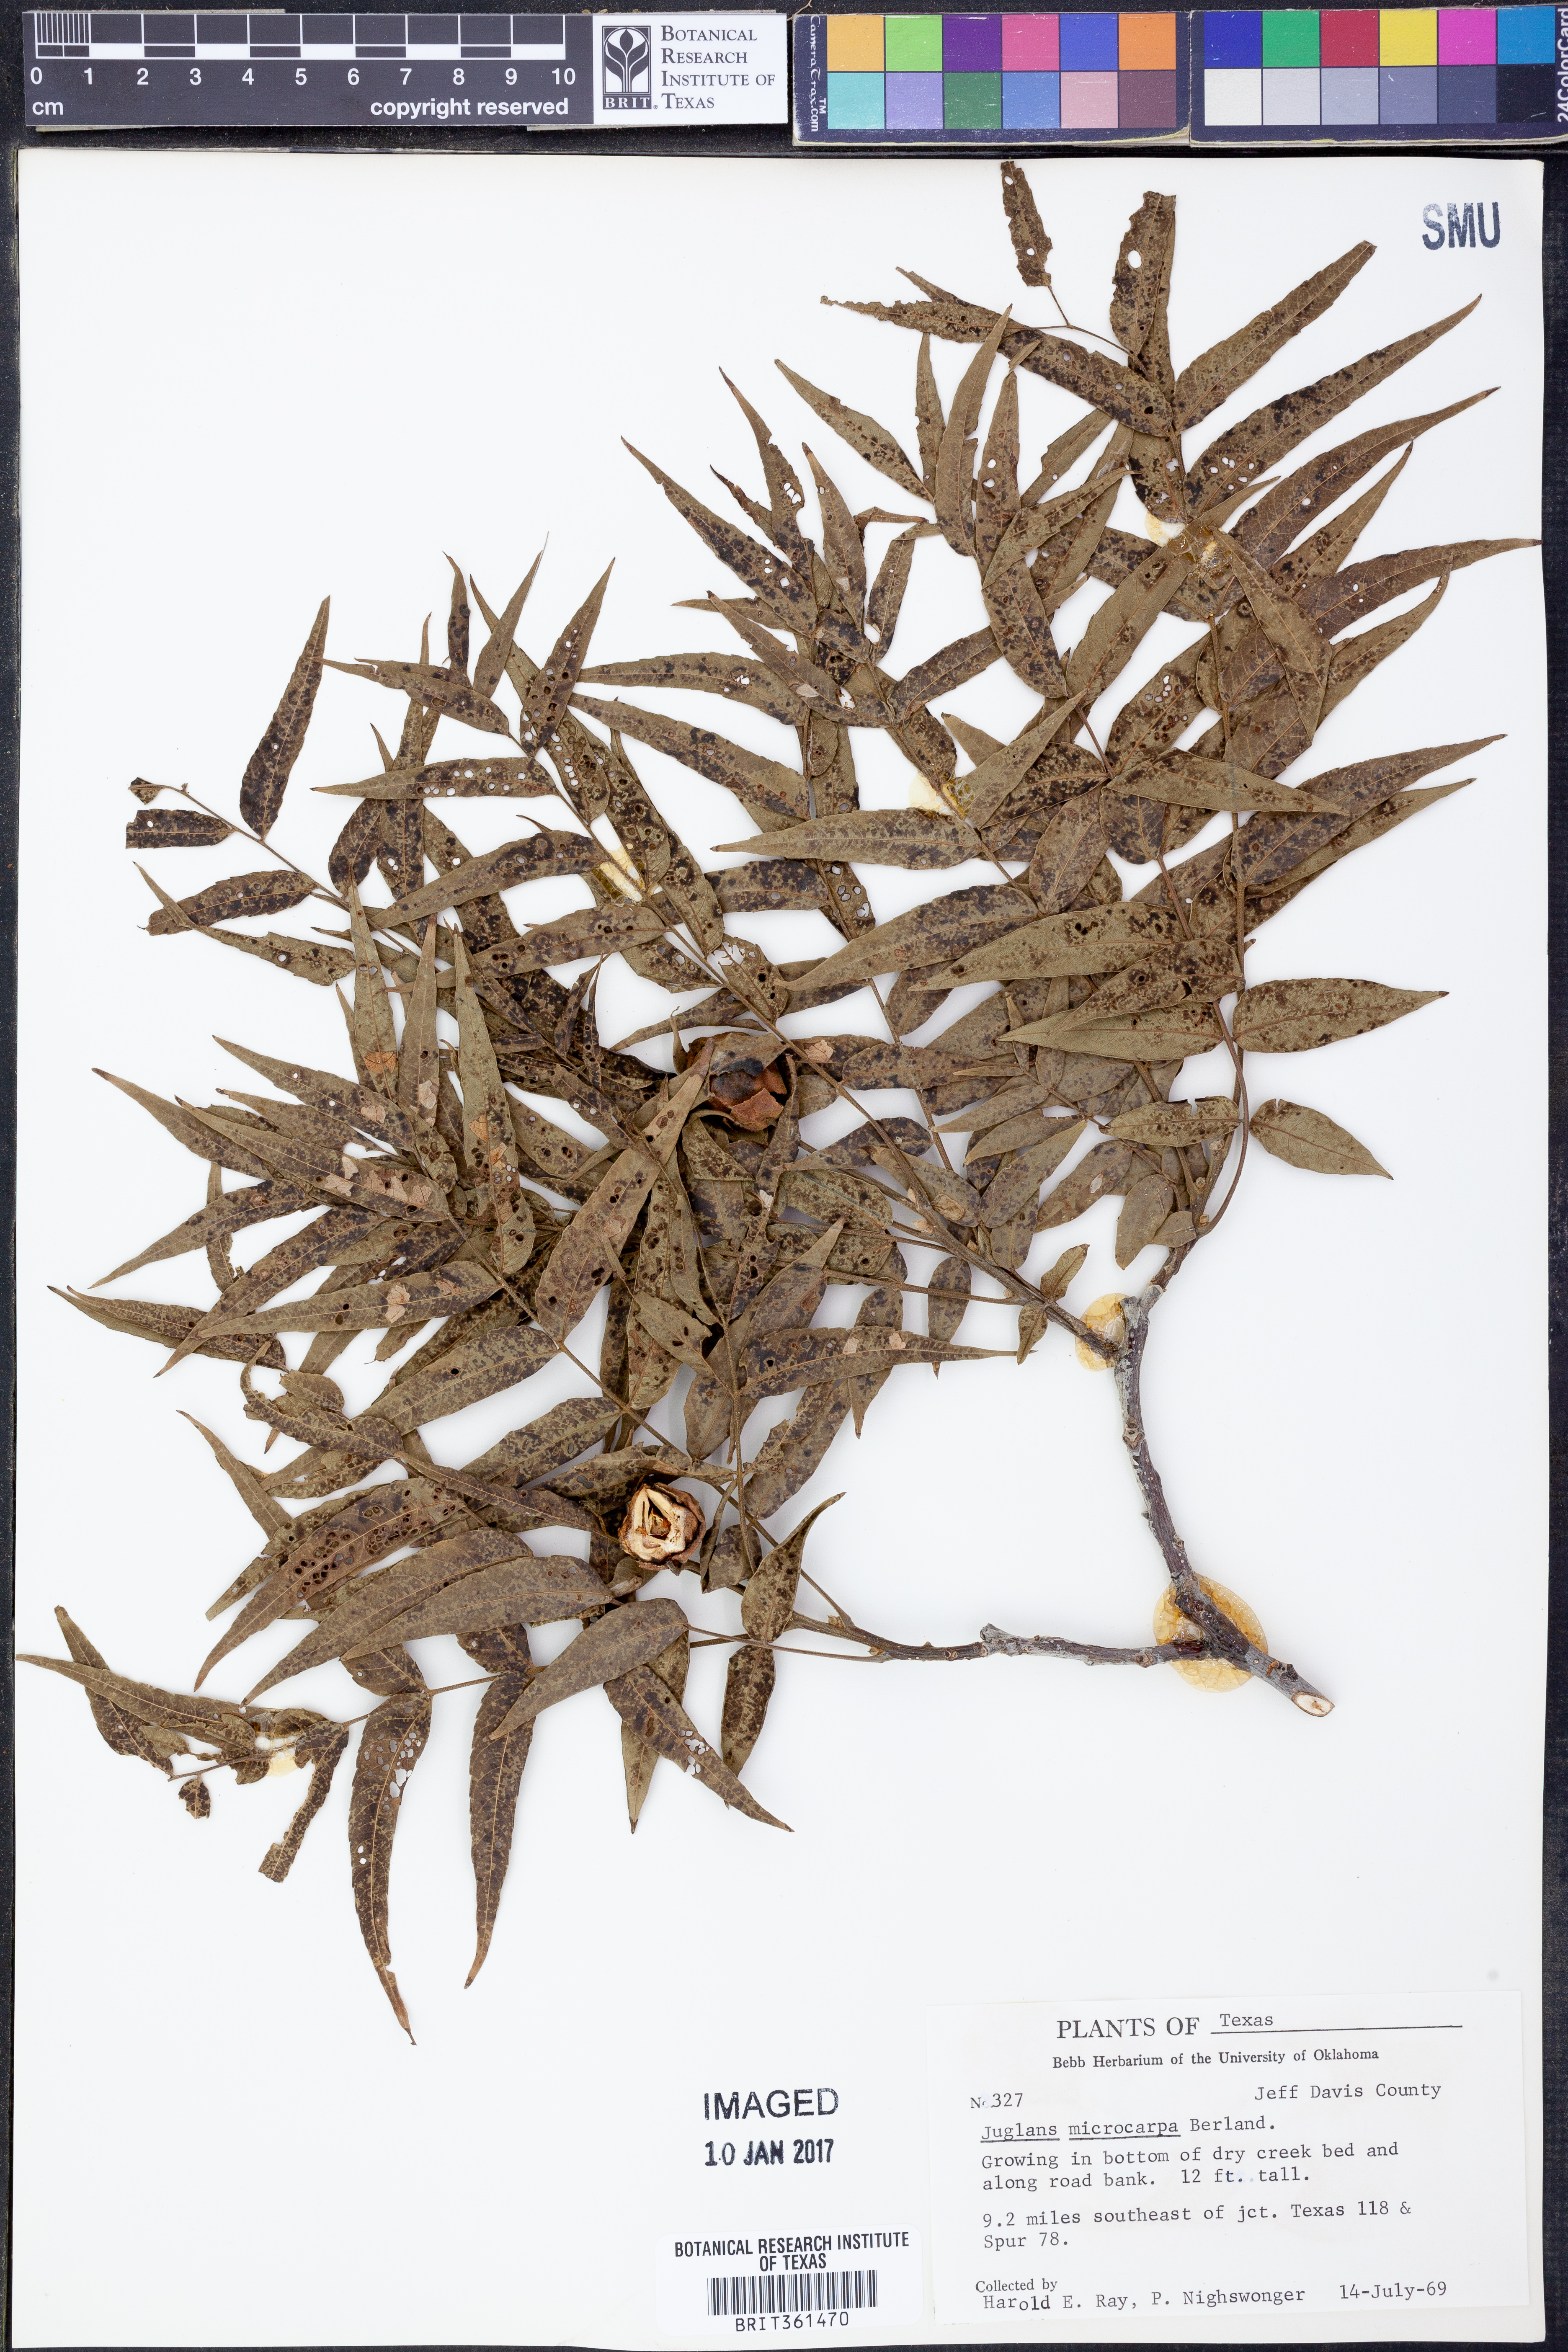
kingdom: Plantae
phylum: Tracheophyta
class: Magnoliopsida
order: Fagales
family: Juglandaceae
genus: Juglans
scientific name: Juglans microcarpa
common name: Texas walnut
